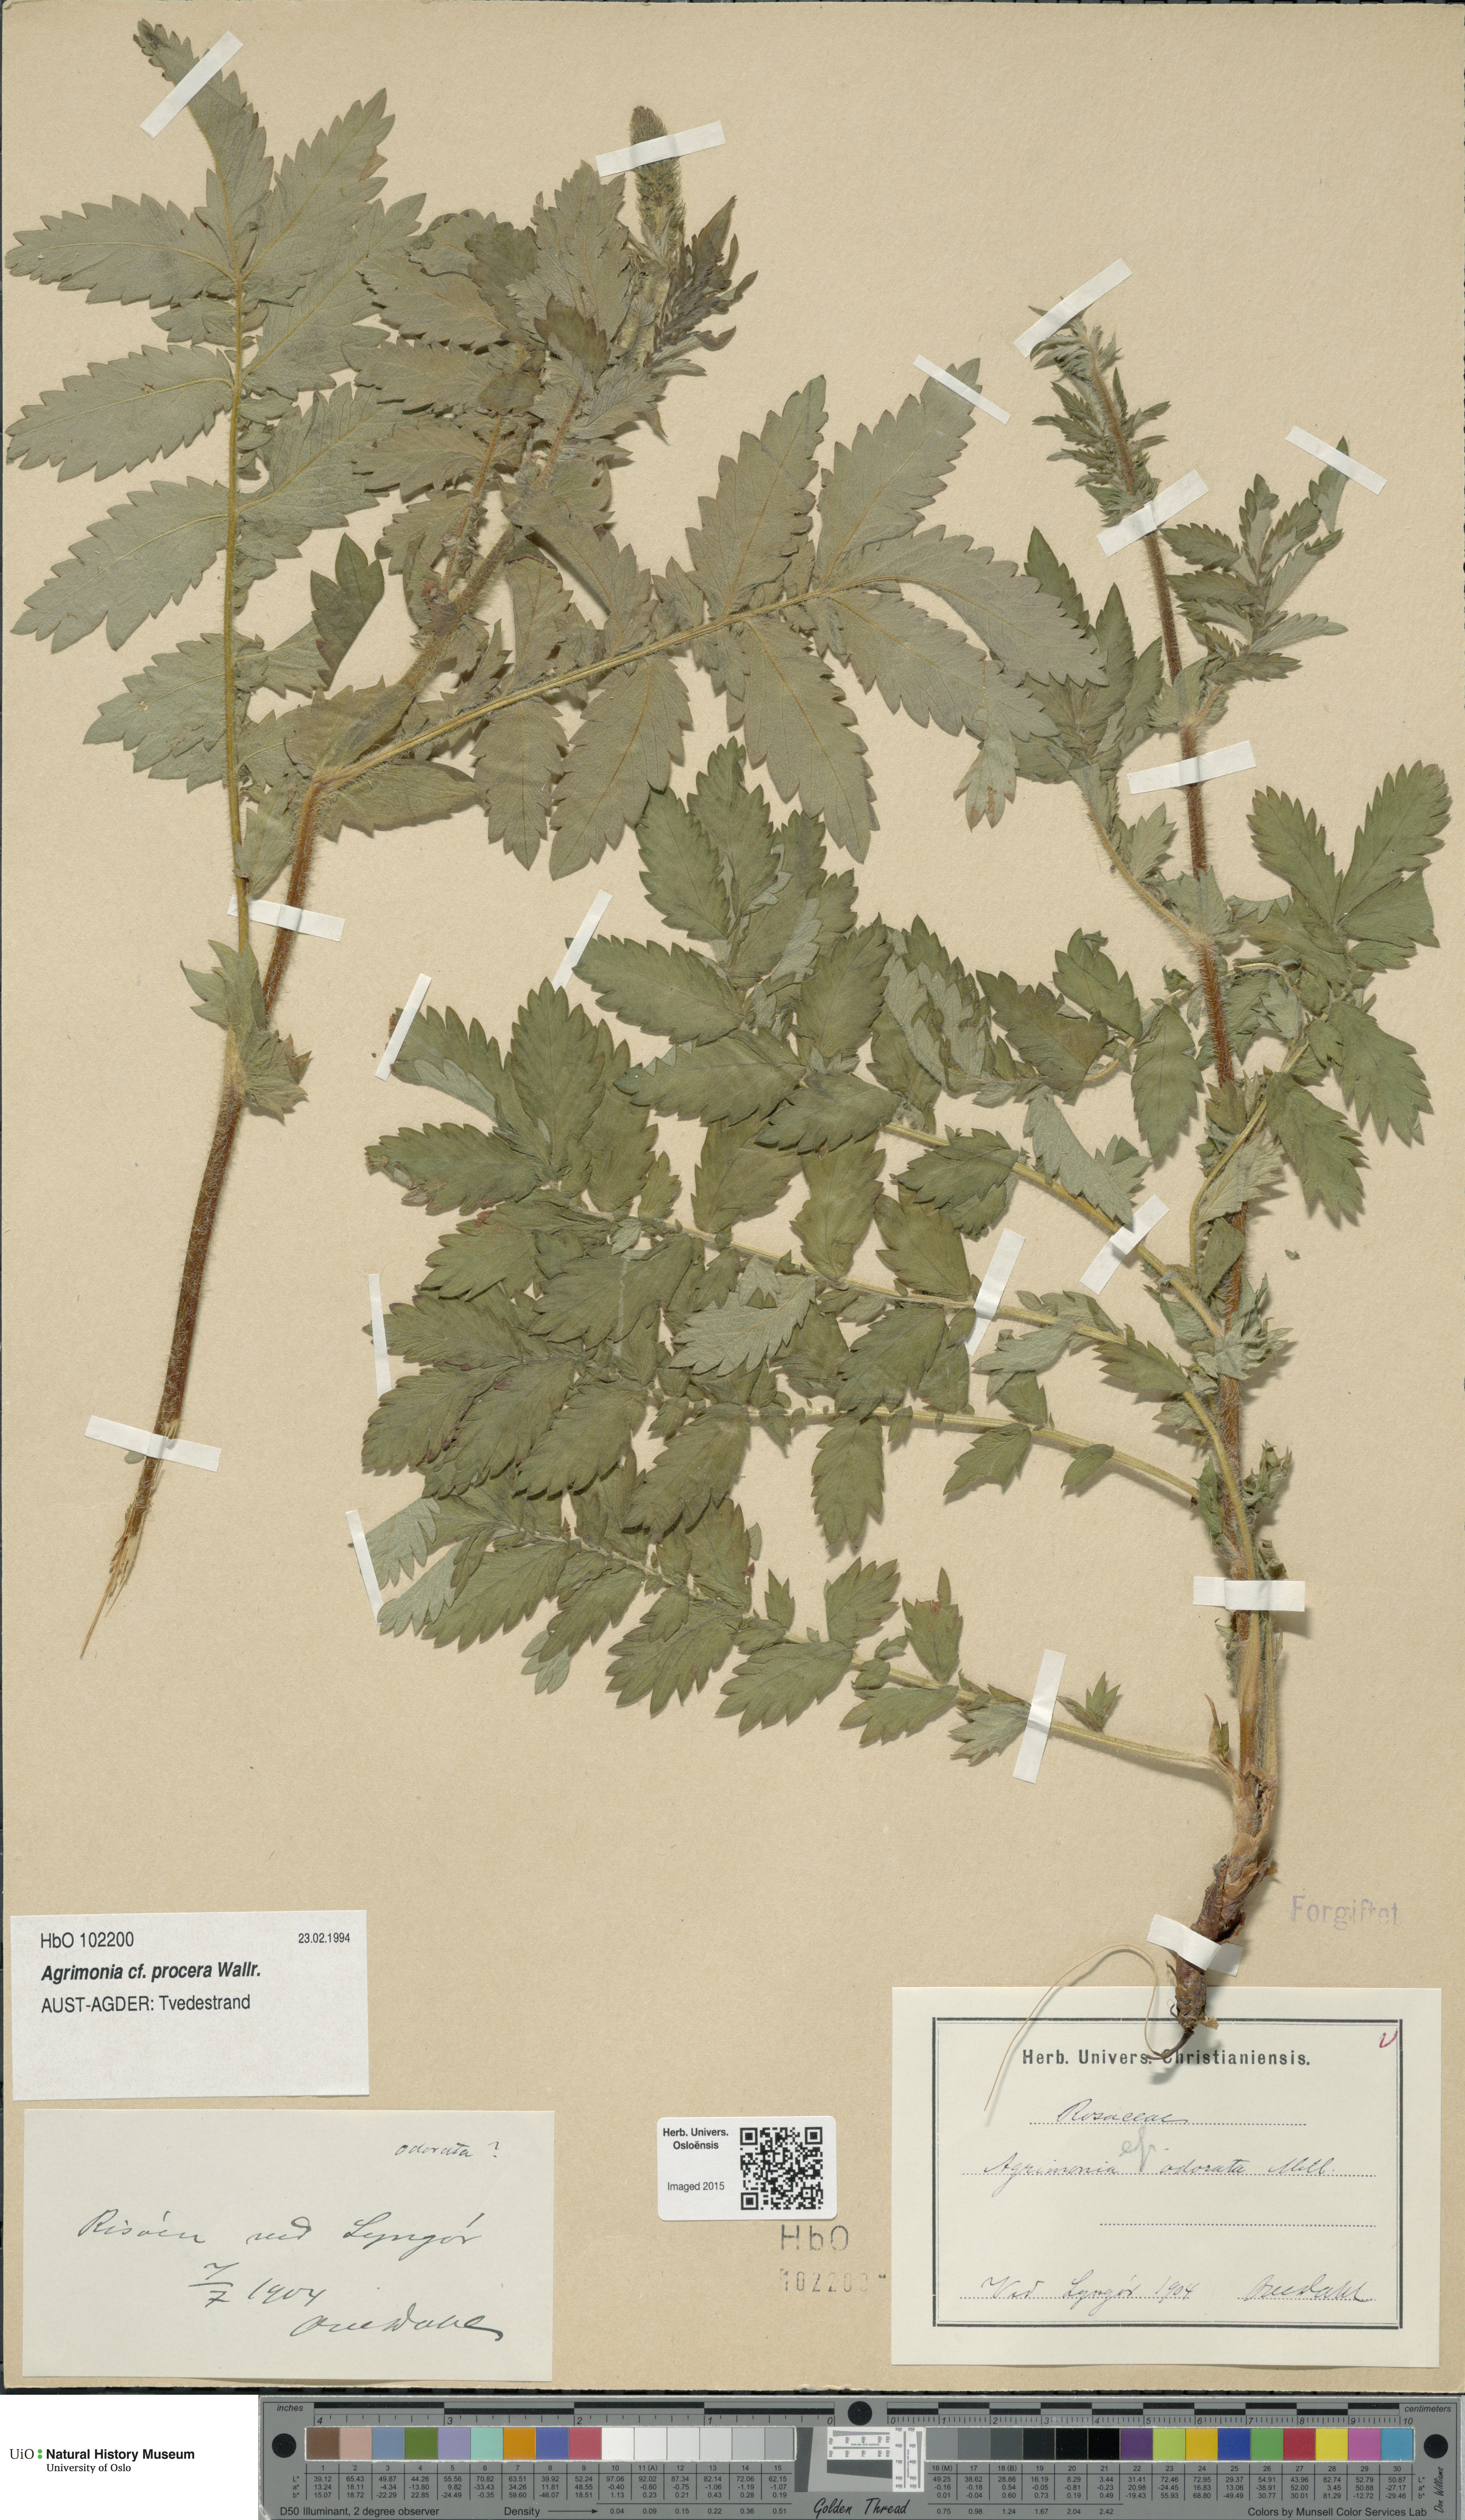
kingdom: Plantae
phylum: Tracheophyta
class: Magnoliopsida
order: Rosales
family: Rosaceae
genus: Agrimonia
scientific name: Agrimonia procera
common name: Fragrant agrimony
